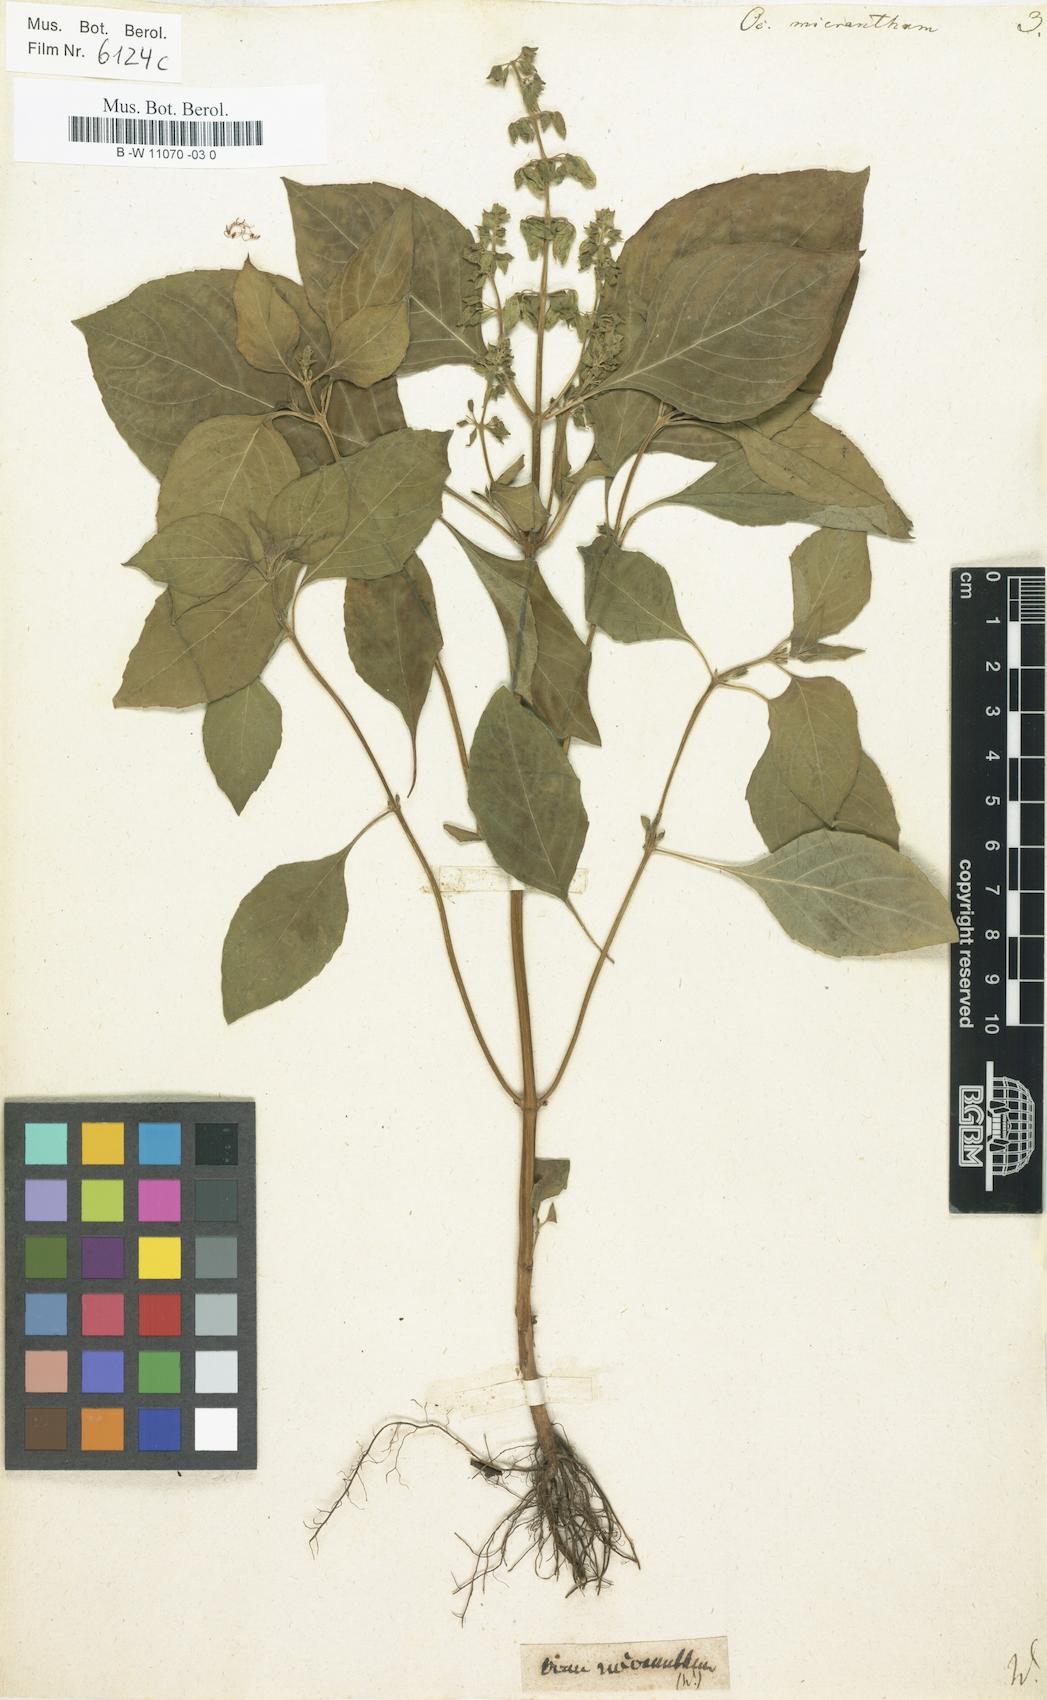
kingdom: Plantae
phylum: Tracheophyta
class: Magnoliopsida
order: Lamiales
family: Lamiaceae
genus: Ocimum
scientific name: Ocimum campechianum
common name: Mosquito basil
